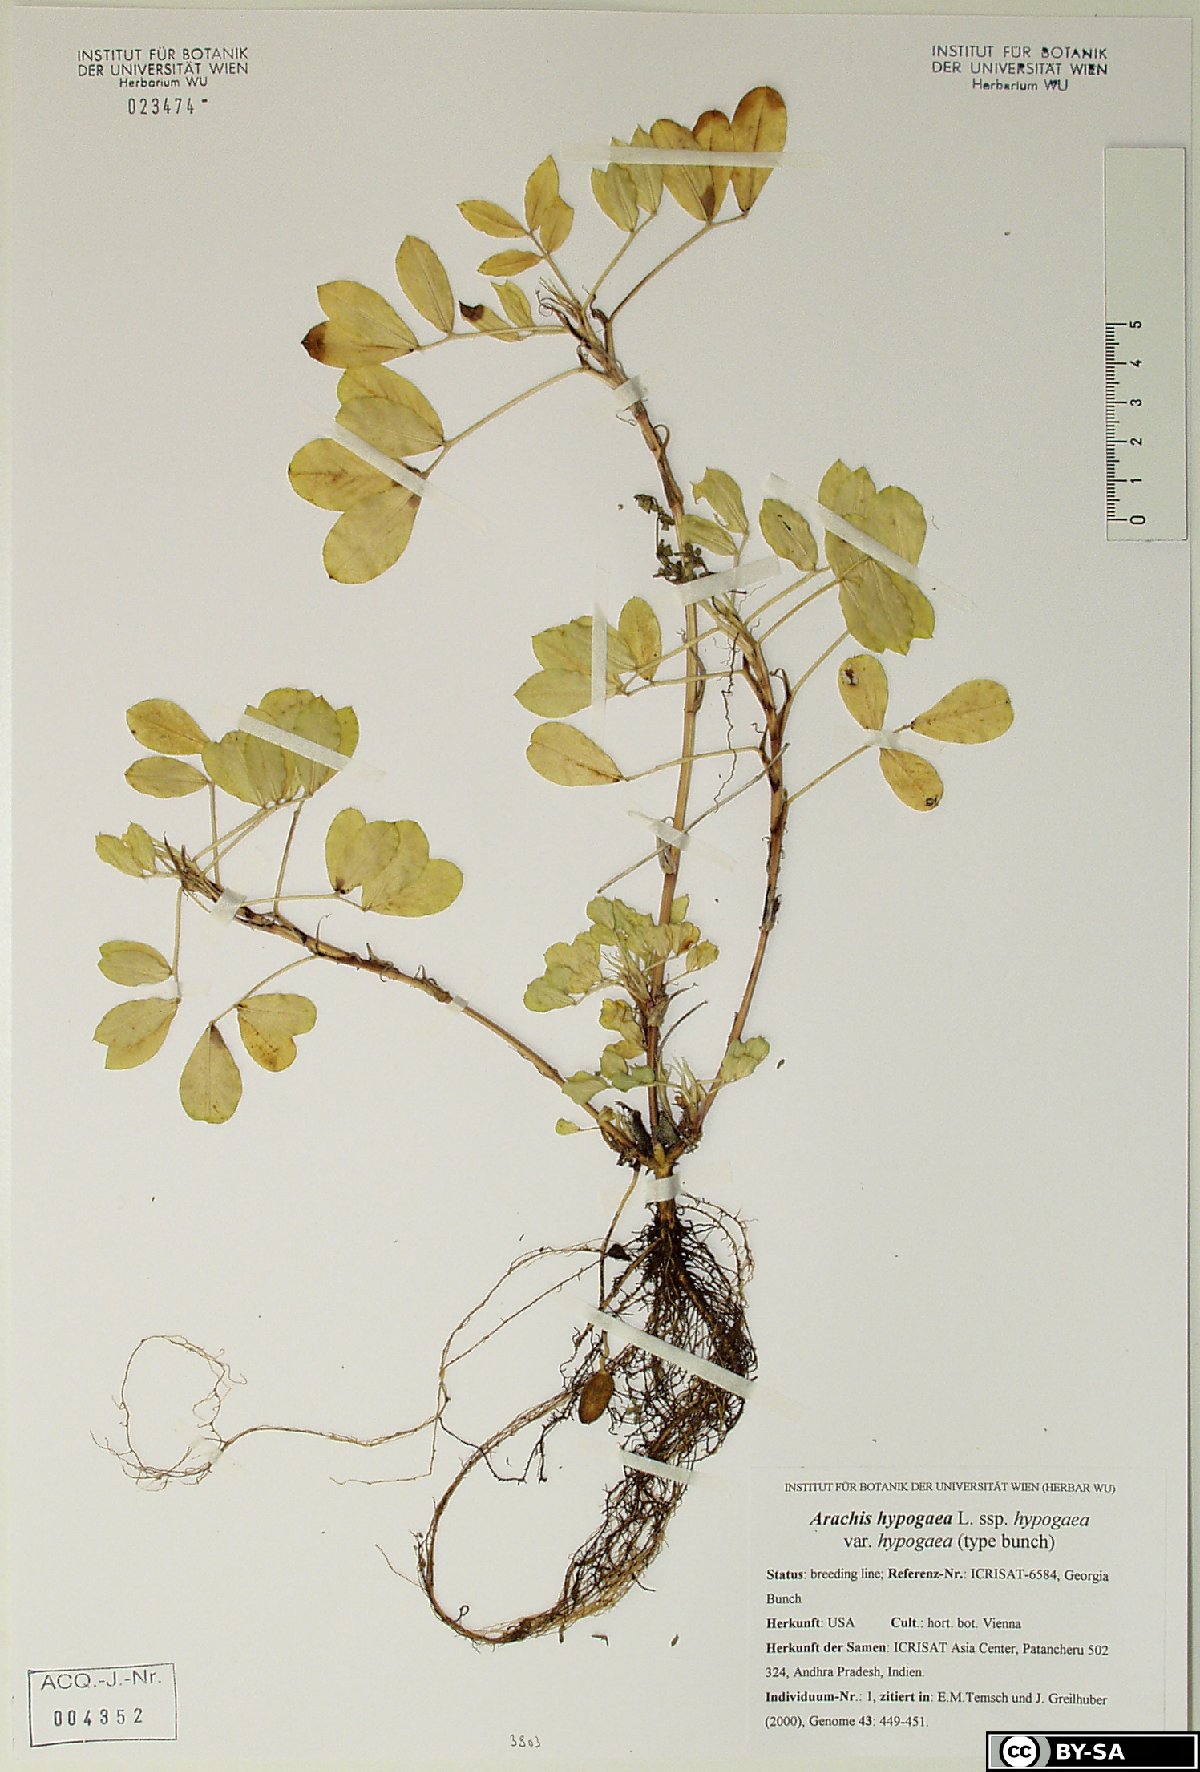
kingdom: Plantae
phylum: Tracheophyta
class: Magnoliopsida
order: Fabales
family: Fabaceae
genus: Arachis
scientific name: Arachis hypogaea
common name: Peanut
